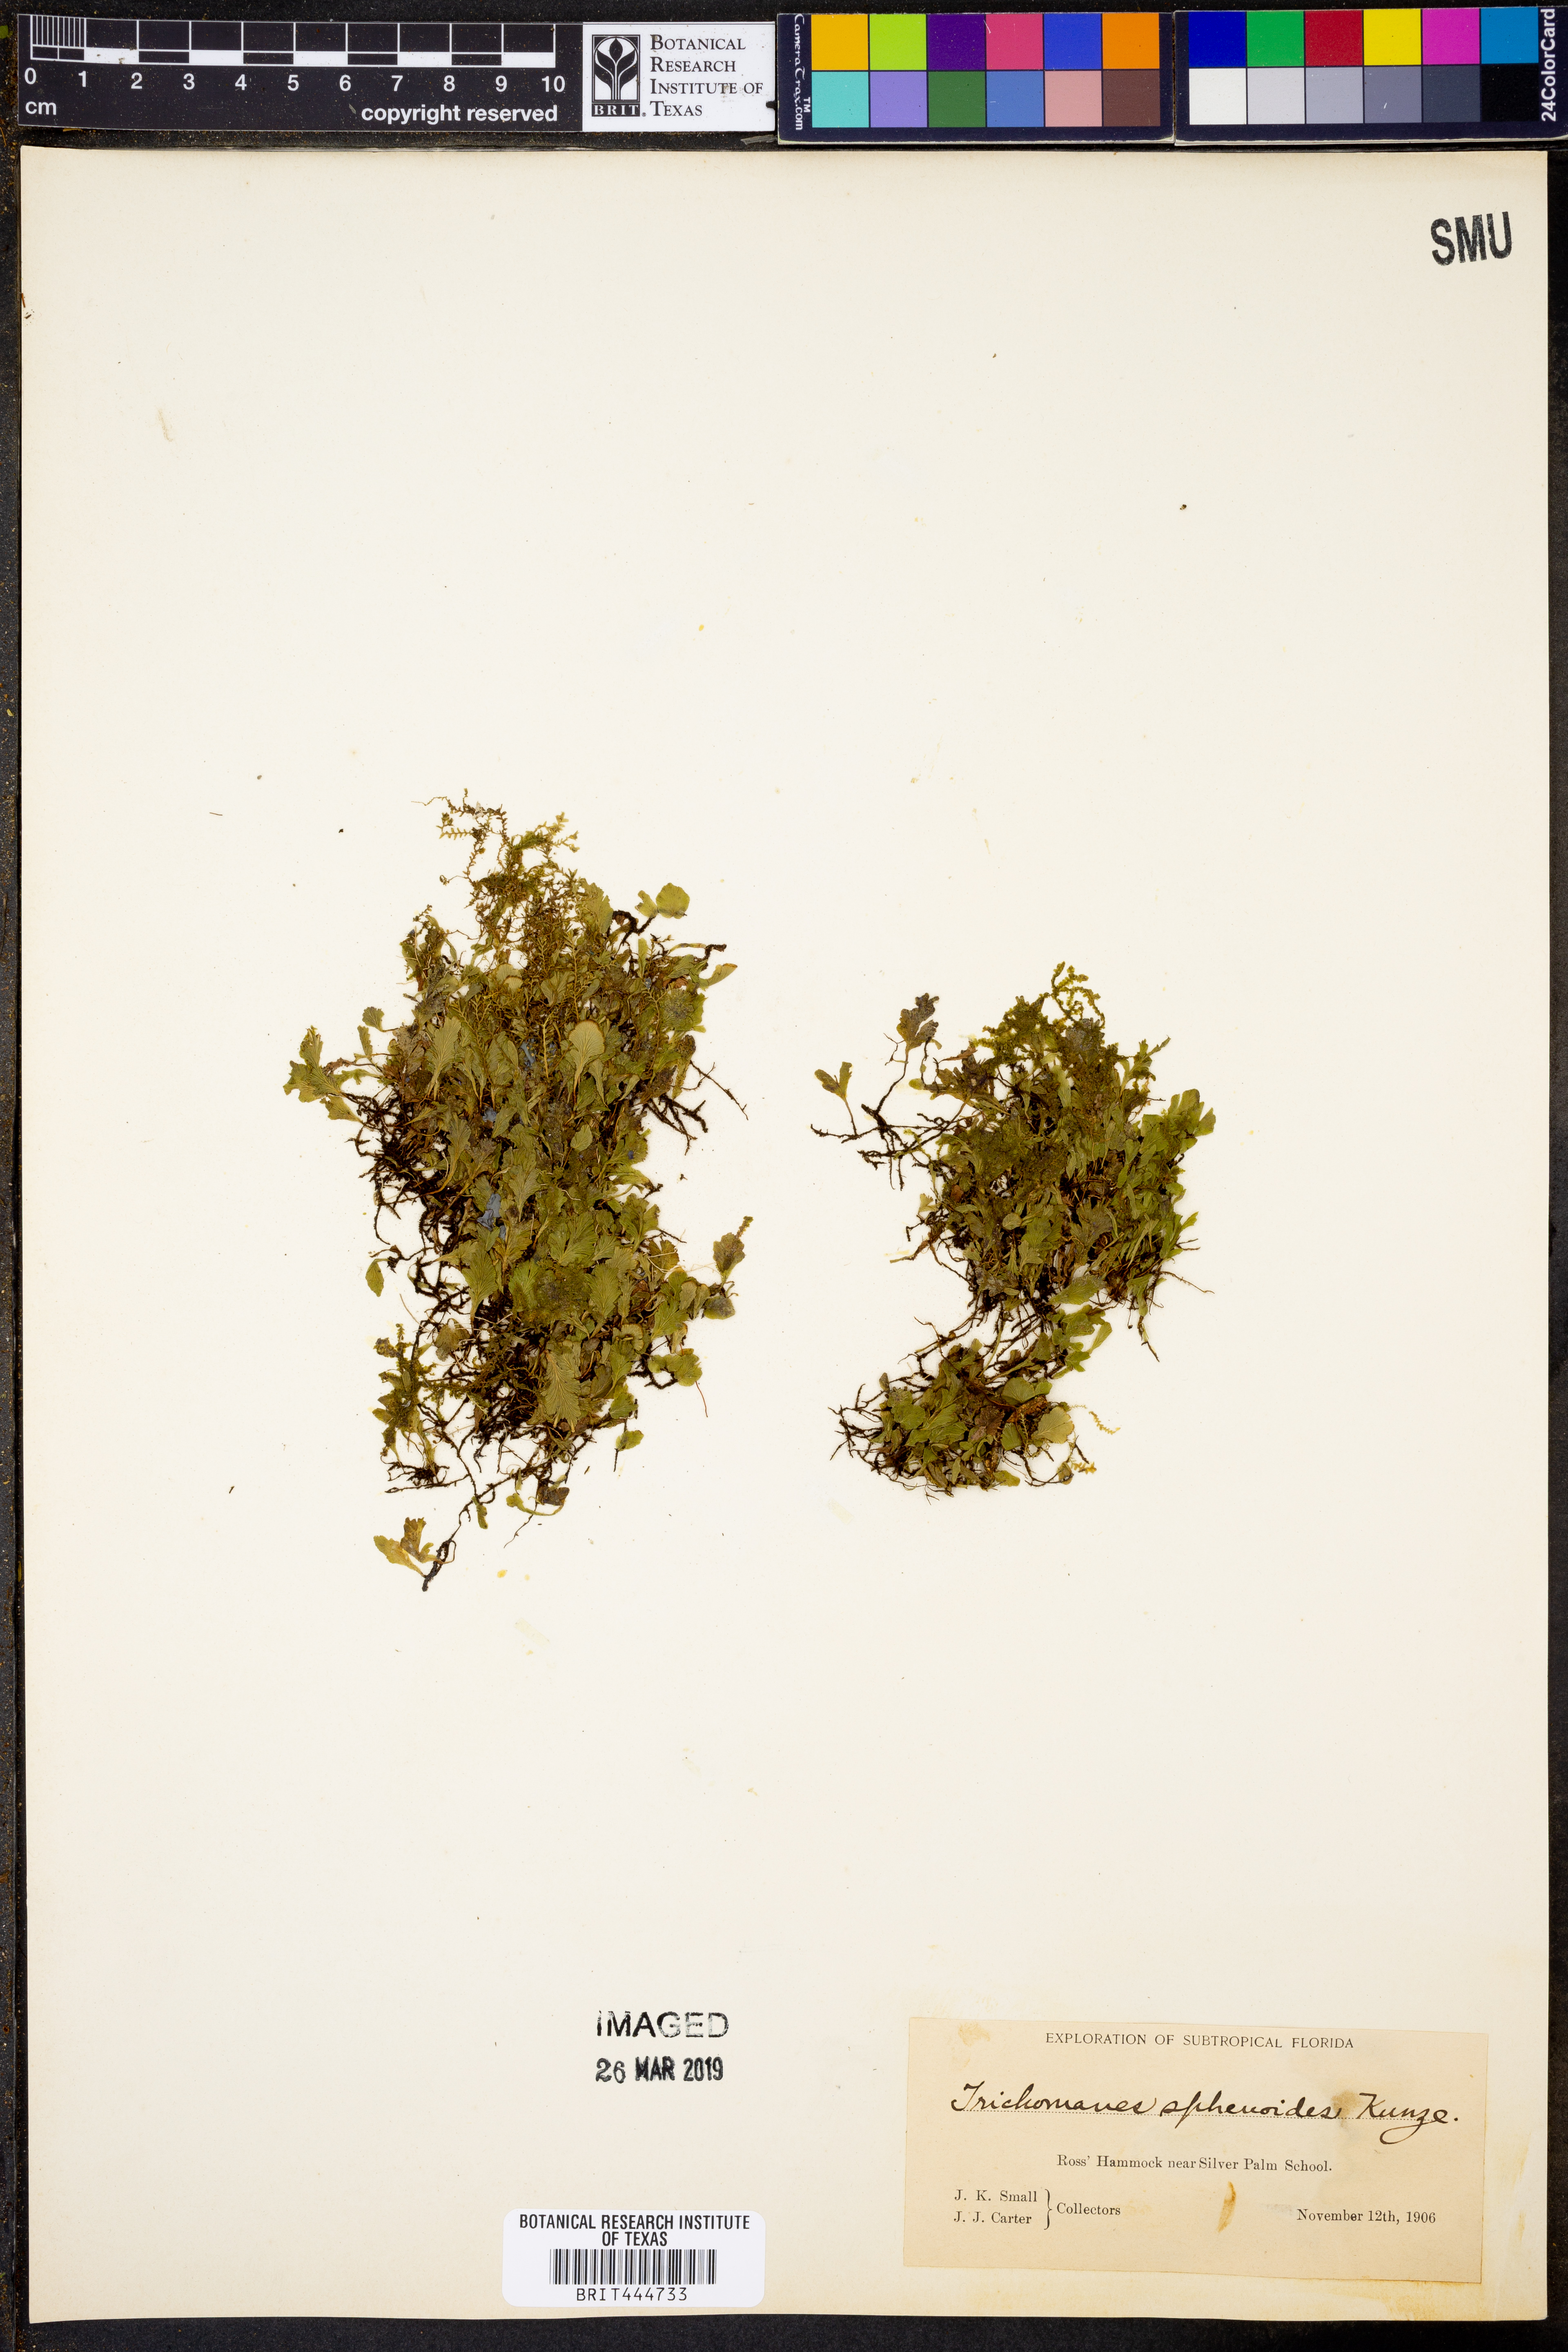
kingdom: Plantae
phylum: Tracheophyta
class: Polypodiopsida
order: Hymenophyllales
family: Hymenophyllaceae
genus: Didymoglossum
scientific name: Didymoglossum punctatum
